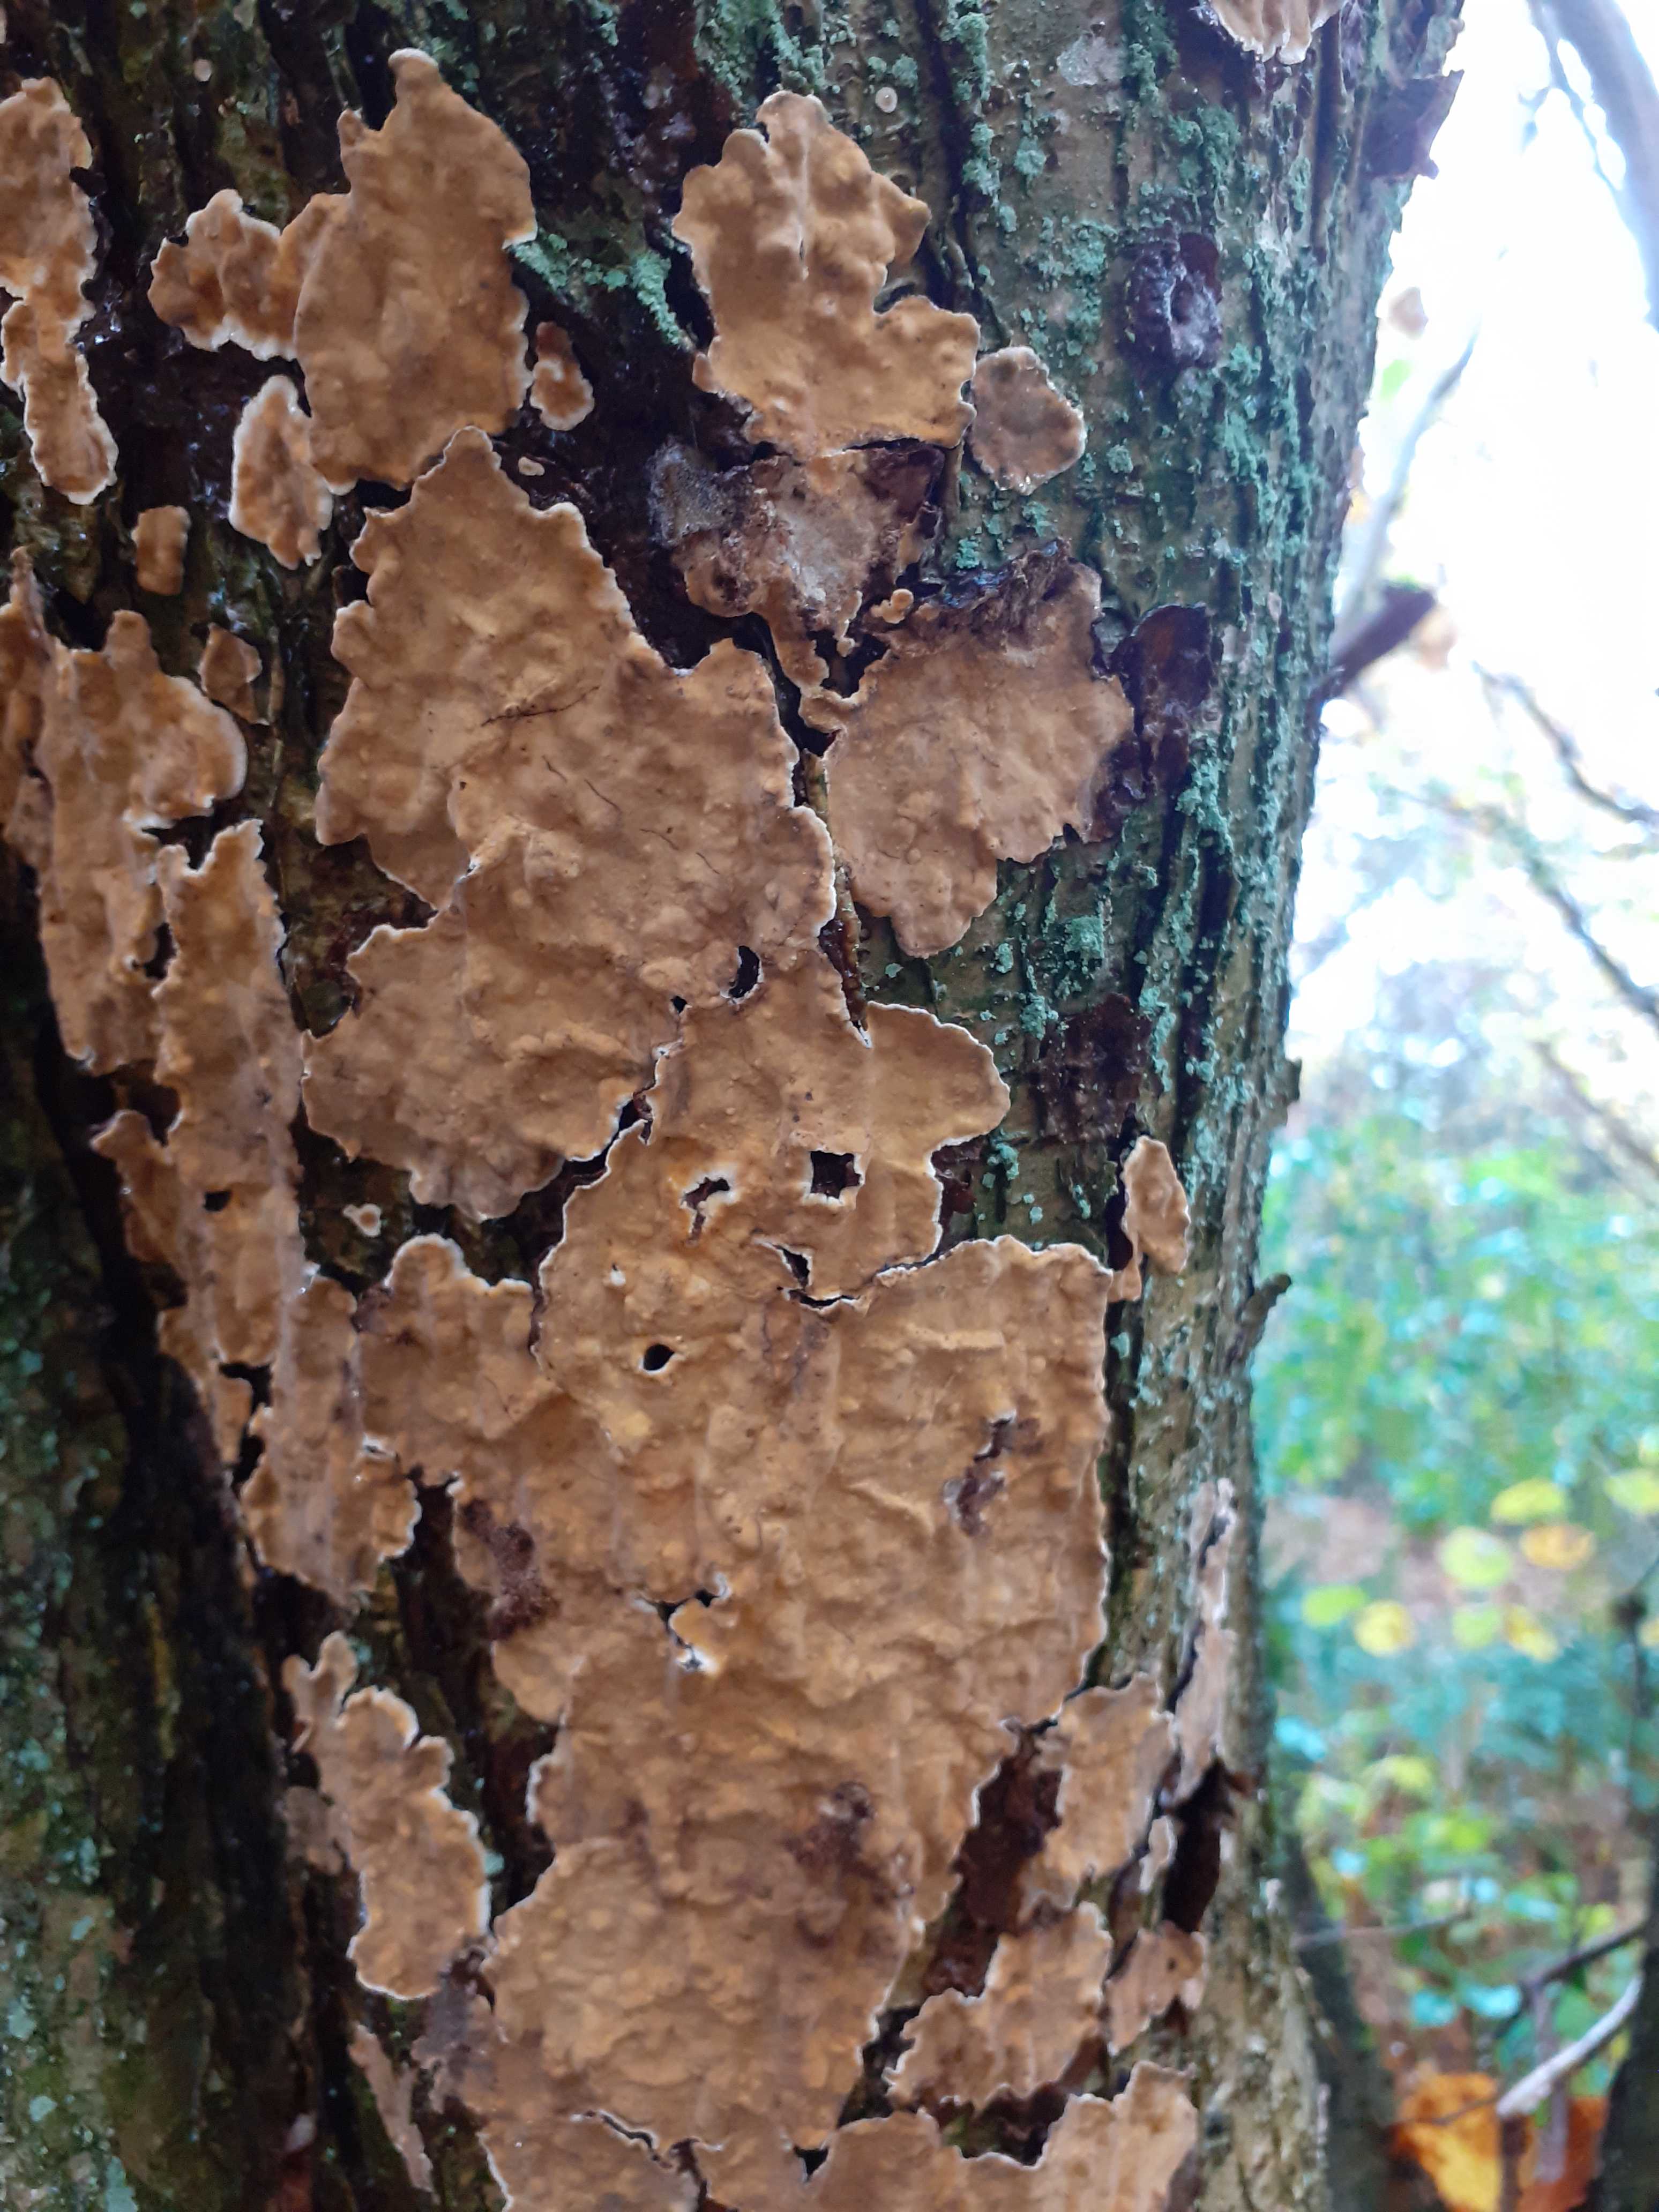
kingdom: Fungi
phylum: Basidiomycota
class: Agaricomycetes
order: Russulales
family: Stereaceae
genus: Stereum
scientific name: Stereum rugosum
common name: rynket lædersvamp
